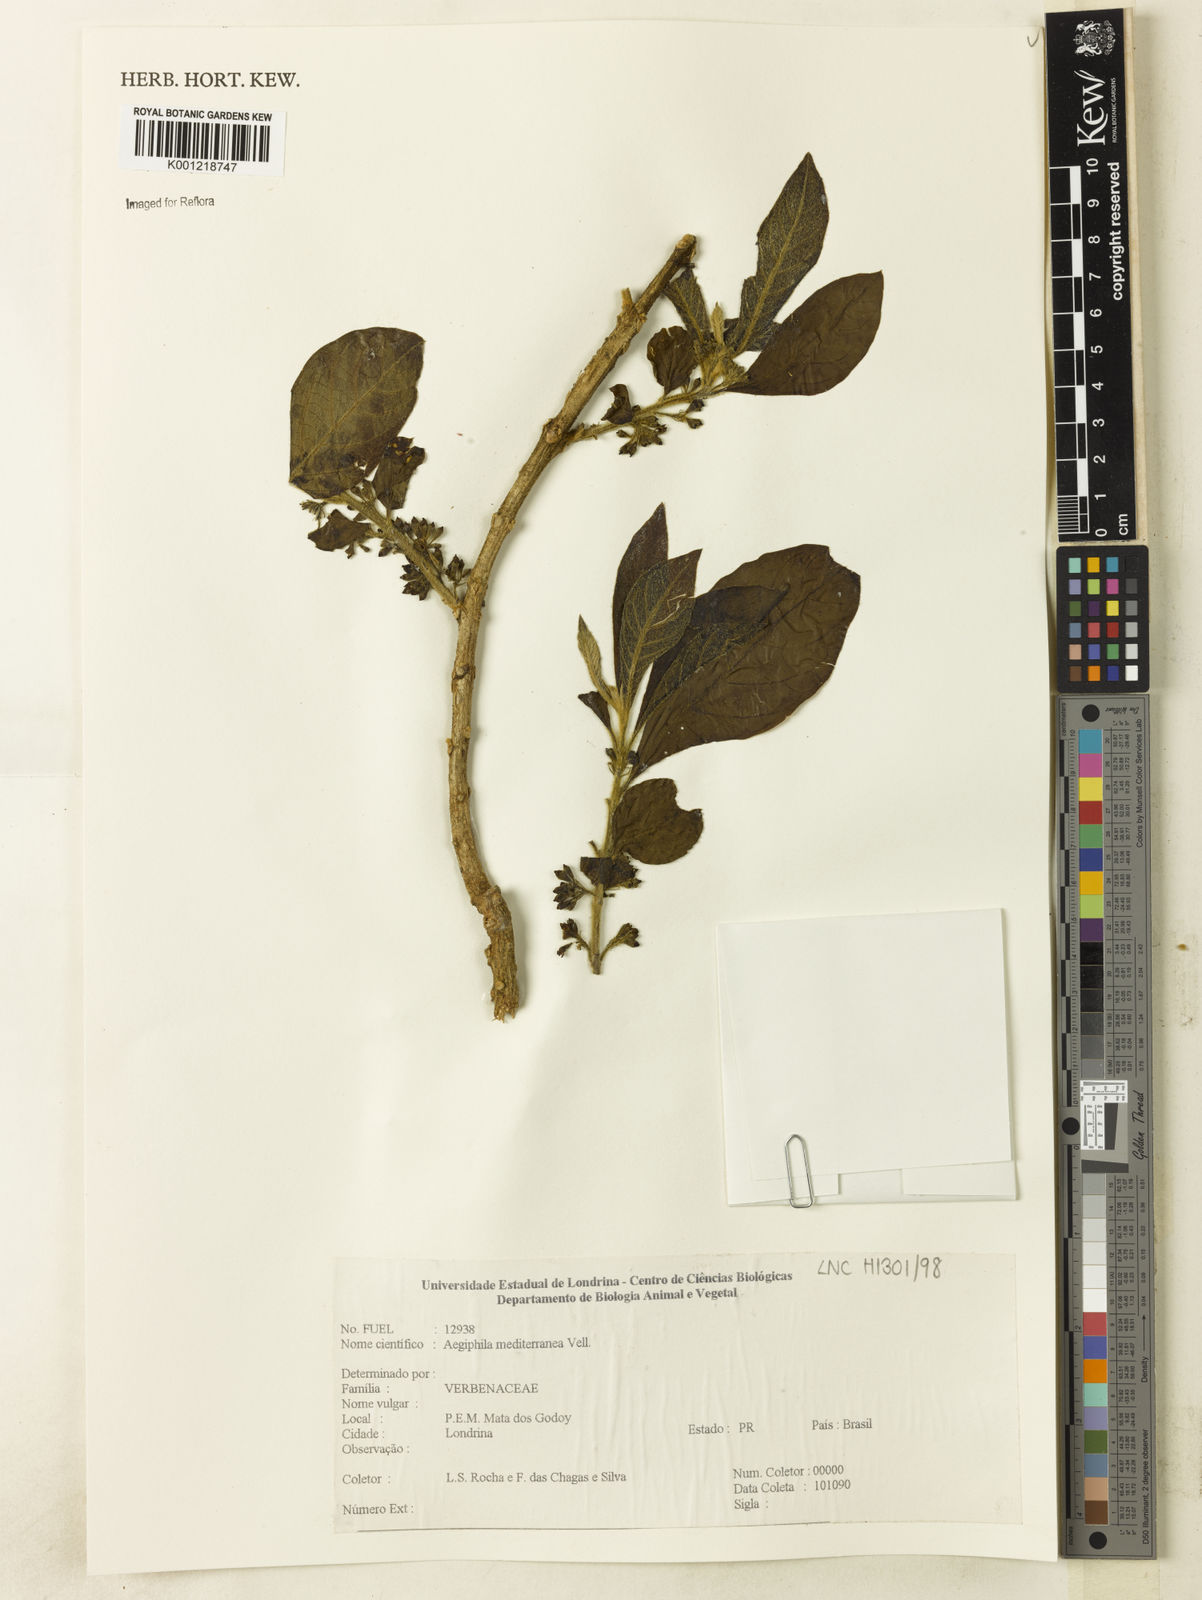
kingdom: Plantae
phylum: Tracheophyta
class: Magnoliopsida
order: Lamiales
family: Lamiaceae
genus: Aegiphila
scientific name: Aegiphila mediterranea
